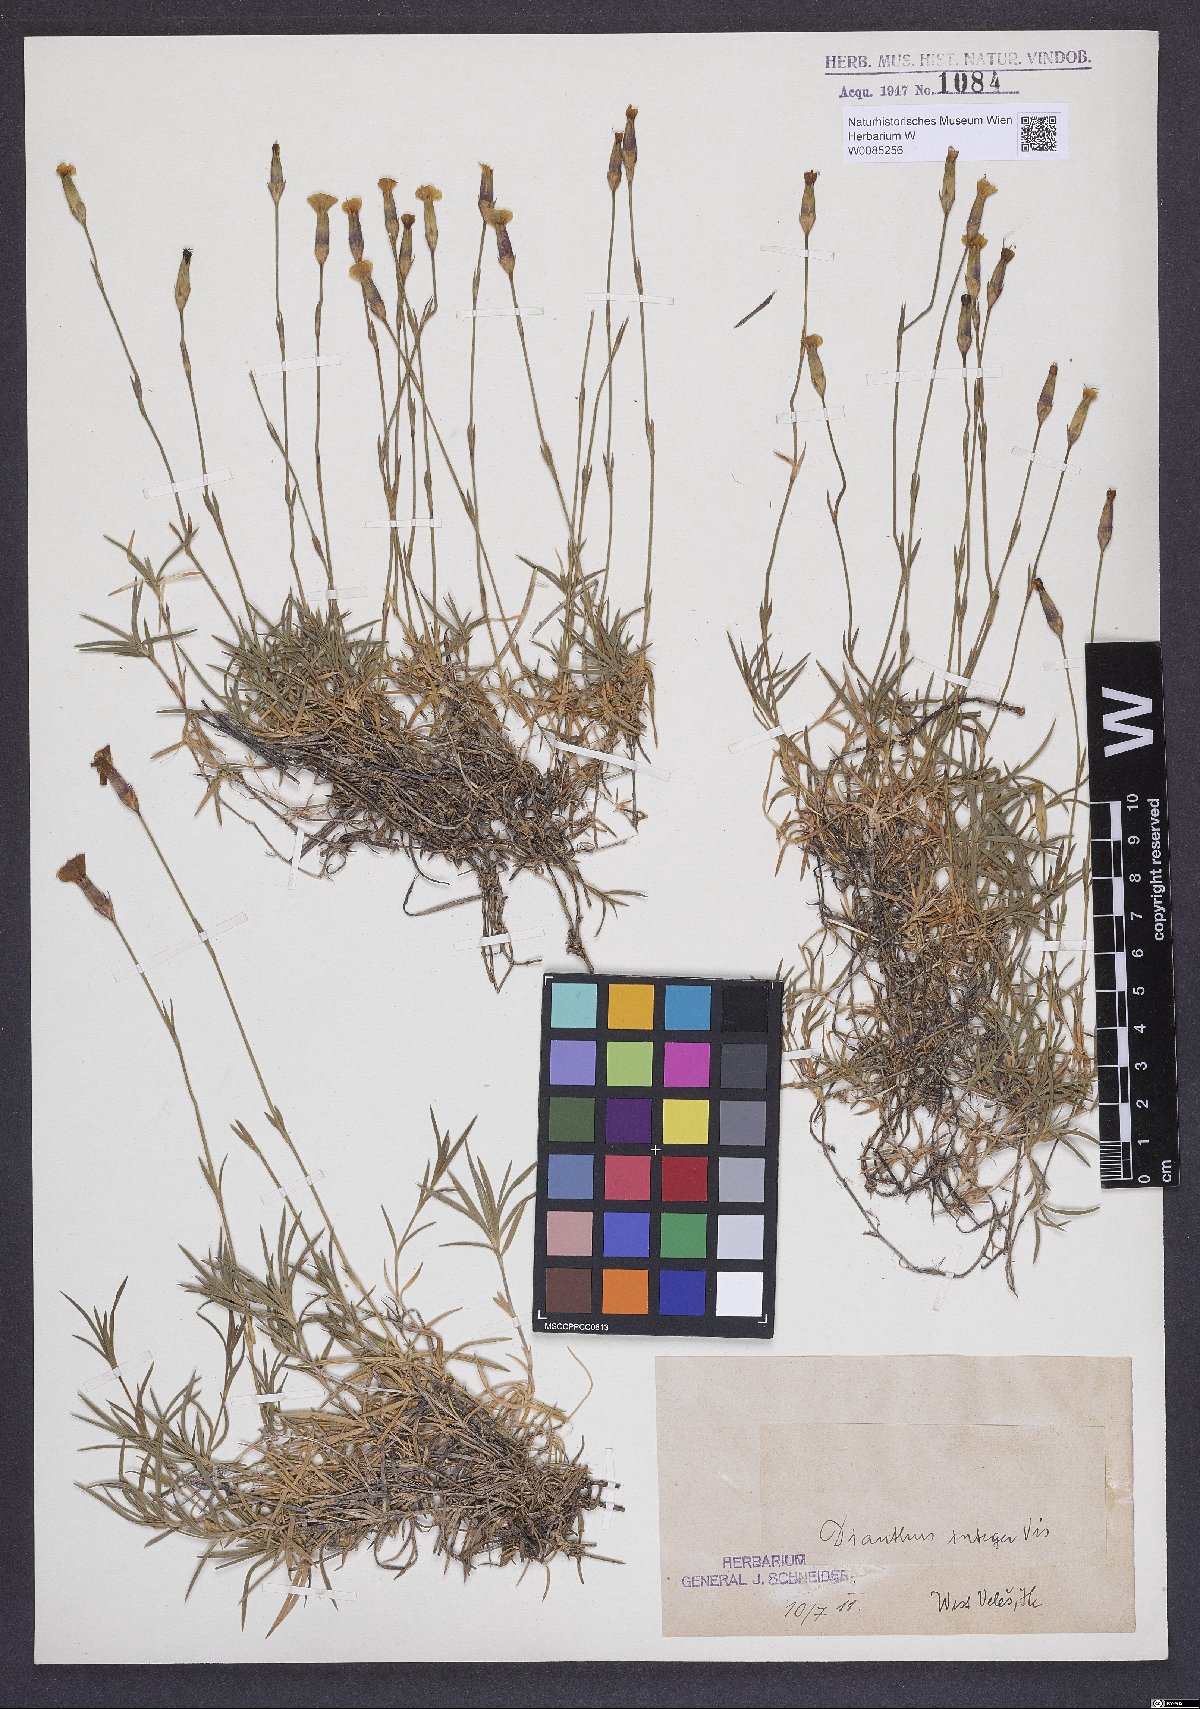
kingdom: Plantae
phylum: Tracheophyta
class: Magnoliopsida
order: Caryophyllales
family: Caryophyllaceae
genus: Dianthus
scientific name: Dianthus petraeus
